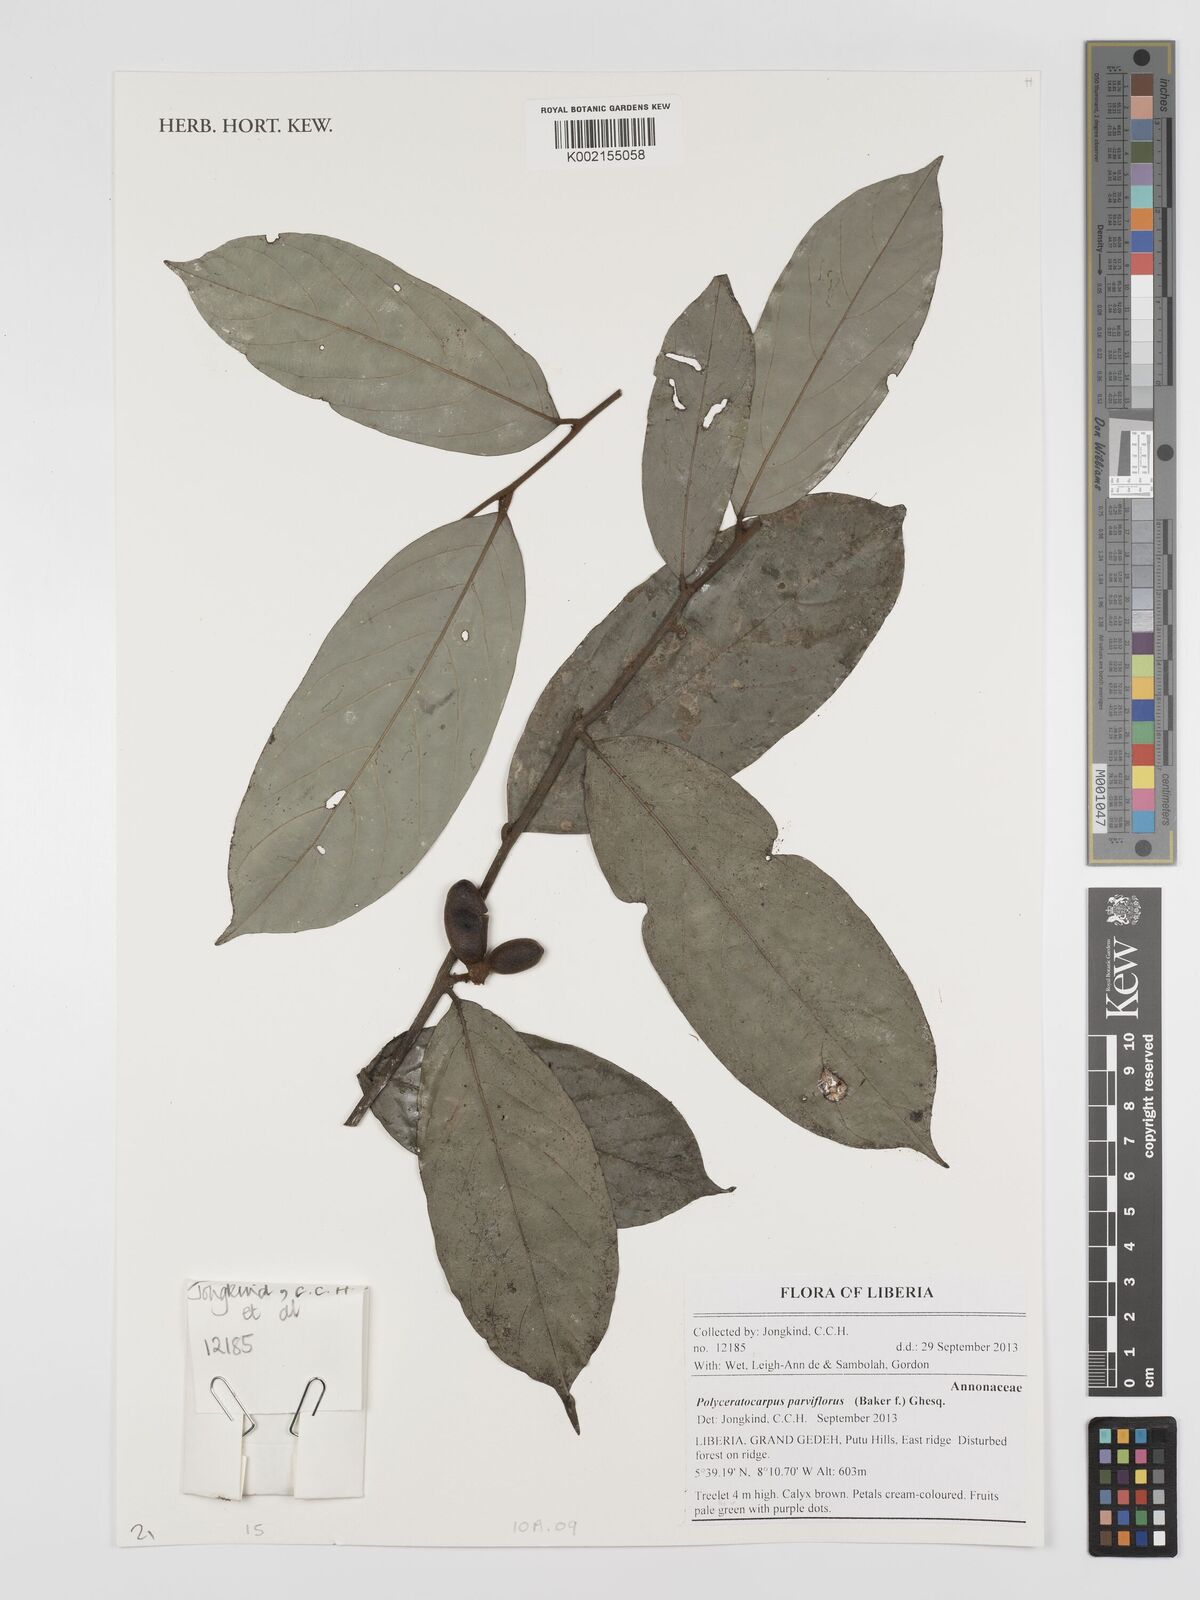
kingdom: Plantae
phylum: Tracheophyta
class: Magnoliopsida
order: Magnoliales
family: Annonaceae
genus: Polyceratocarpus
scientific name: Polyceratocarpus parviflorus
